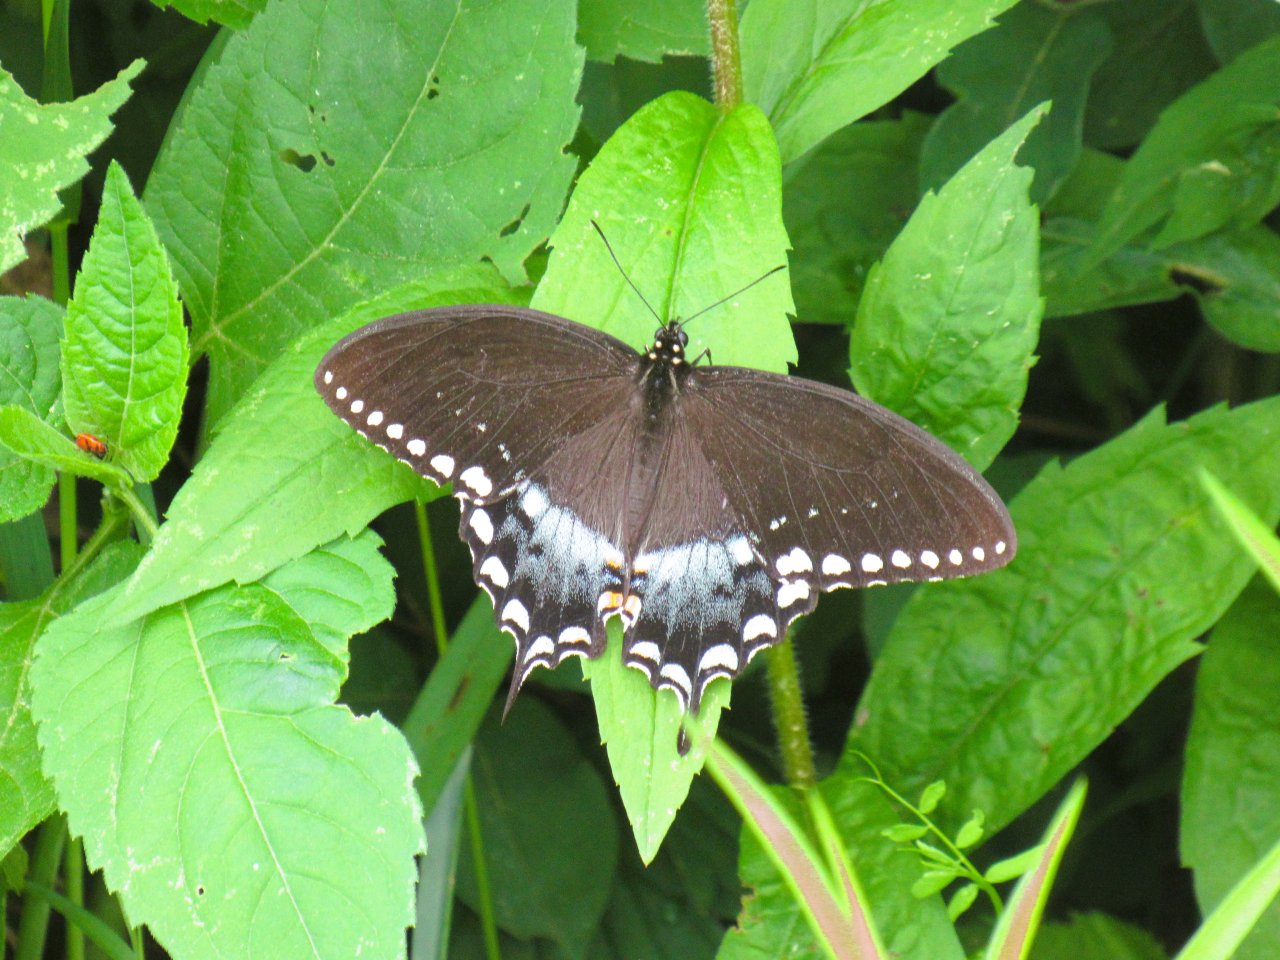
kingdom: Animalia
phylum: Arthropoda
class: Insecta
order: Lepidoptera
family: Papilionidae
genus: Pterourus
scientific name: Pterourus troilus
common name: Spicebush Swallowtail
